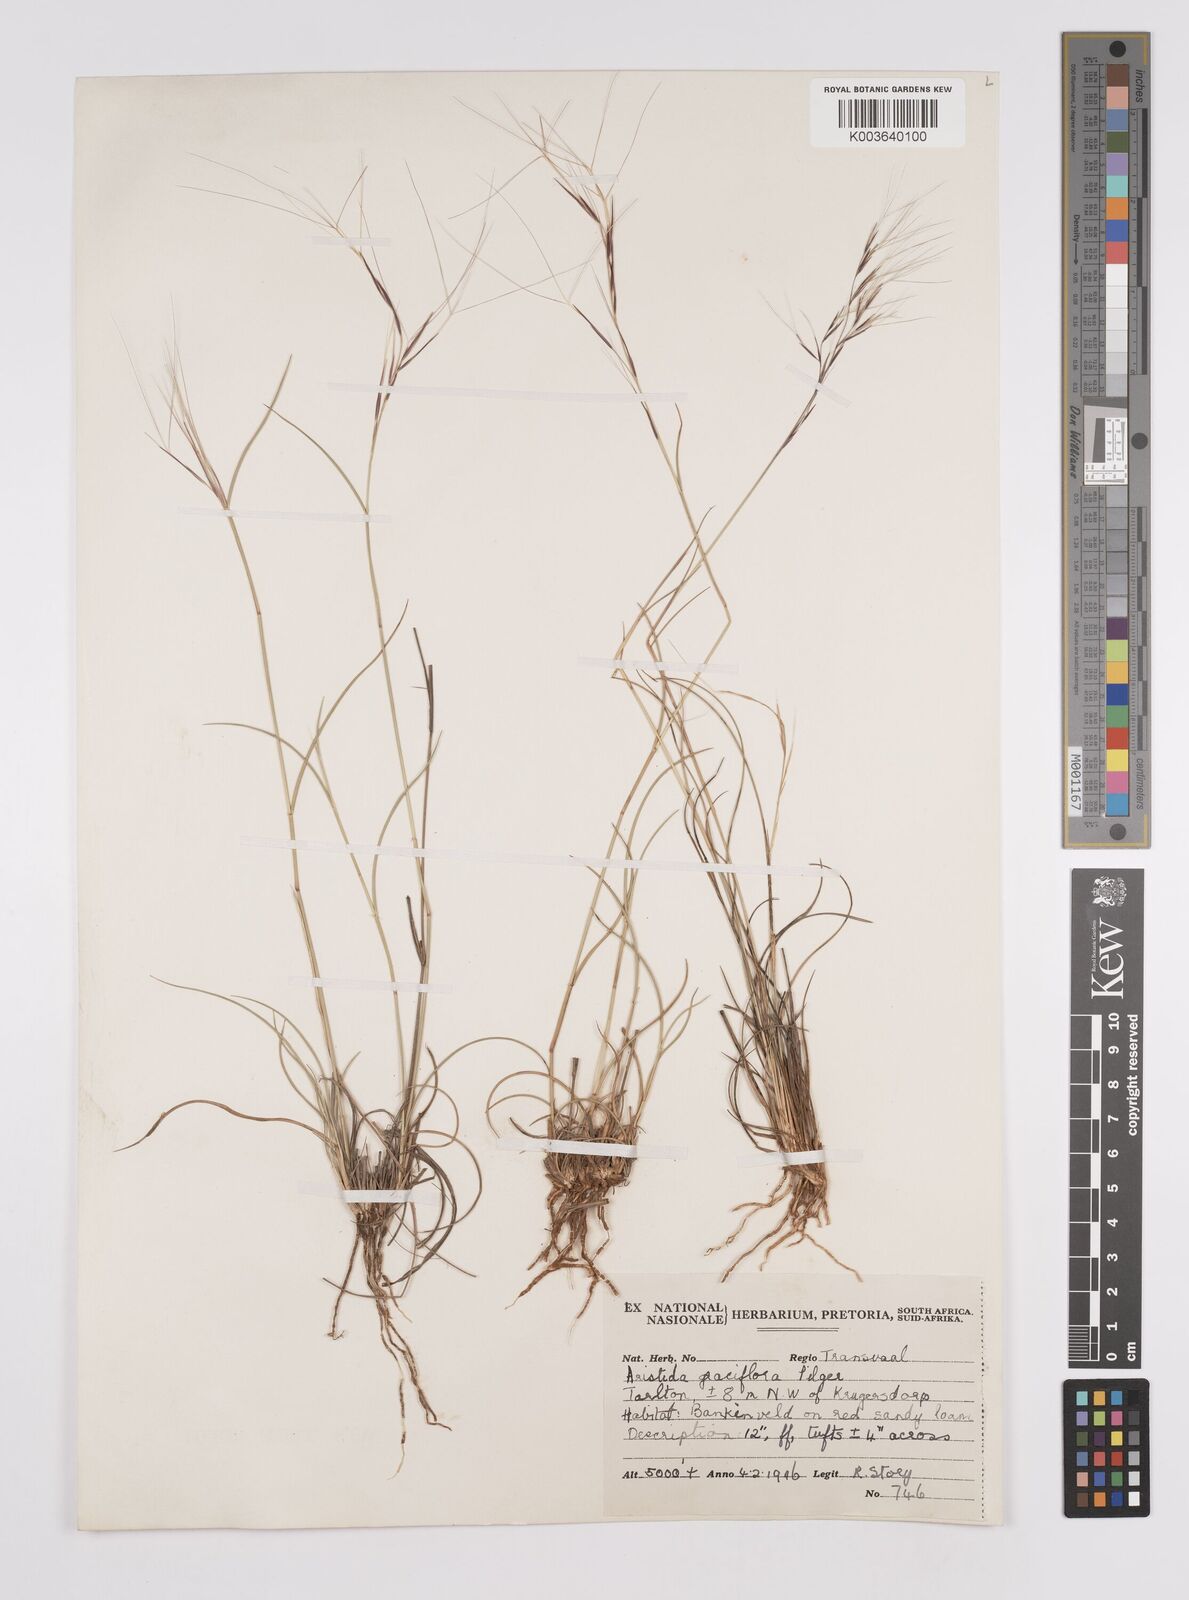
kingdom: Plantae
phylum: Tracheophyta
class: Liliopsida
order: Poales
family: Poaceae
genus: Aristida
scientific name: Aristida stipitata
